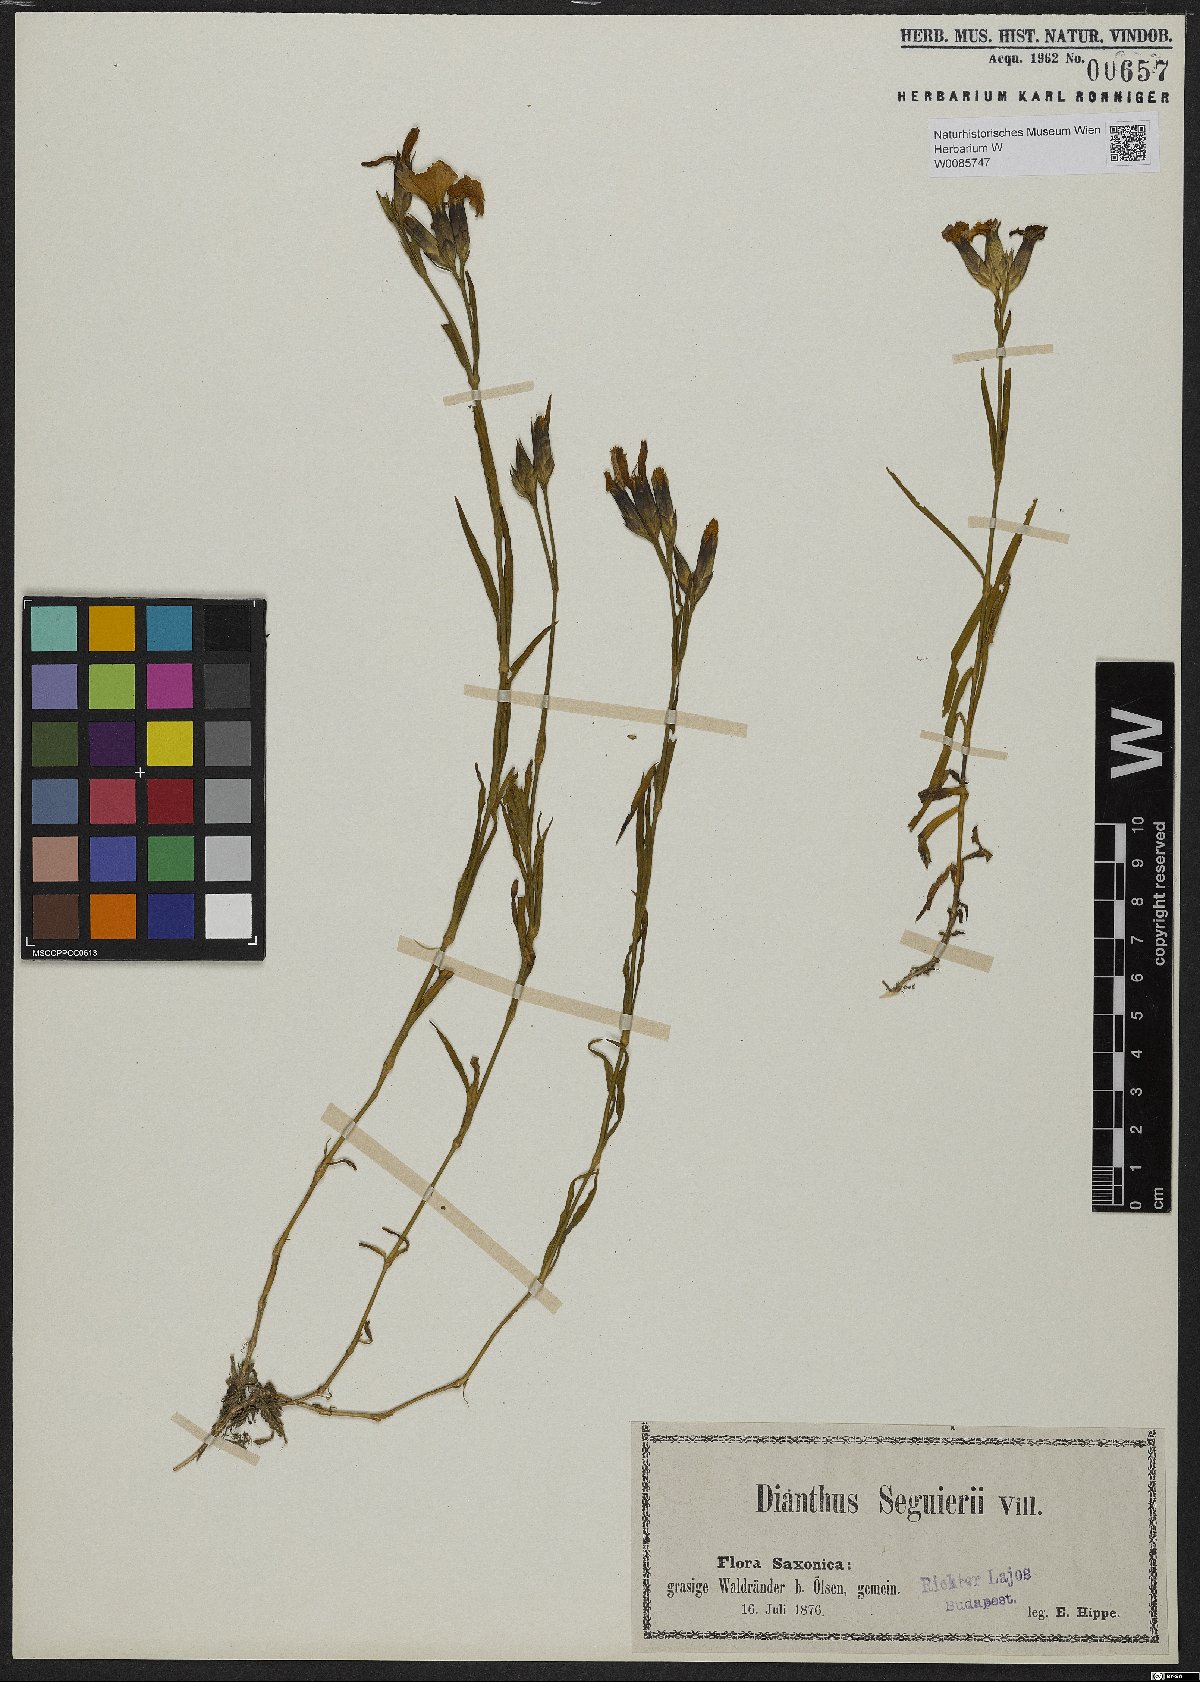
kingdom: Plantae
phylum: Tracheophyta
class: Magnoliopsida
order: Caryophyllales
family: Caryophyllaceae
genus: Dianthus
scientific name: Dianthus seguieri
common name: Ragged pink
